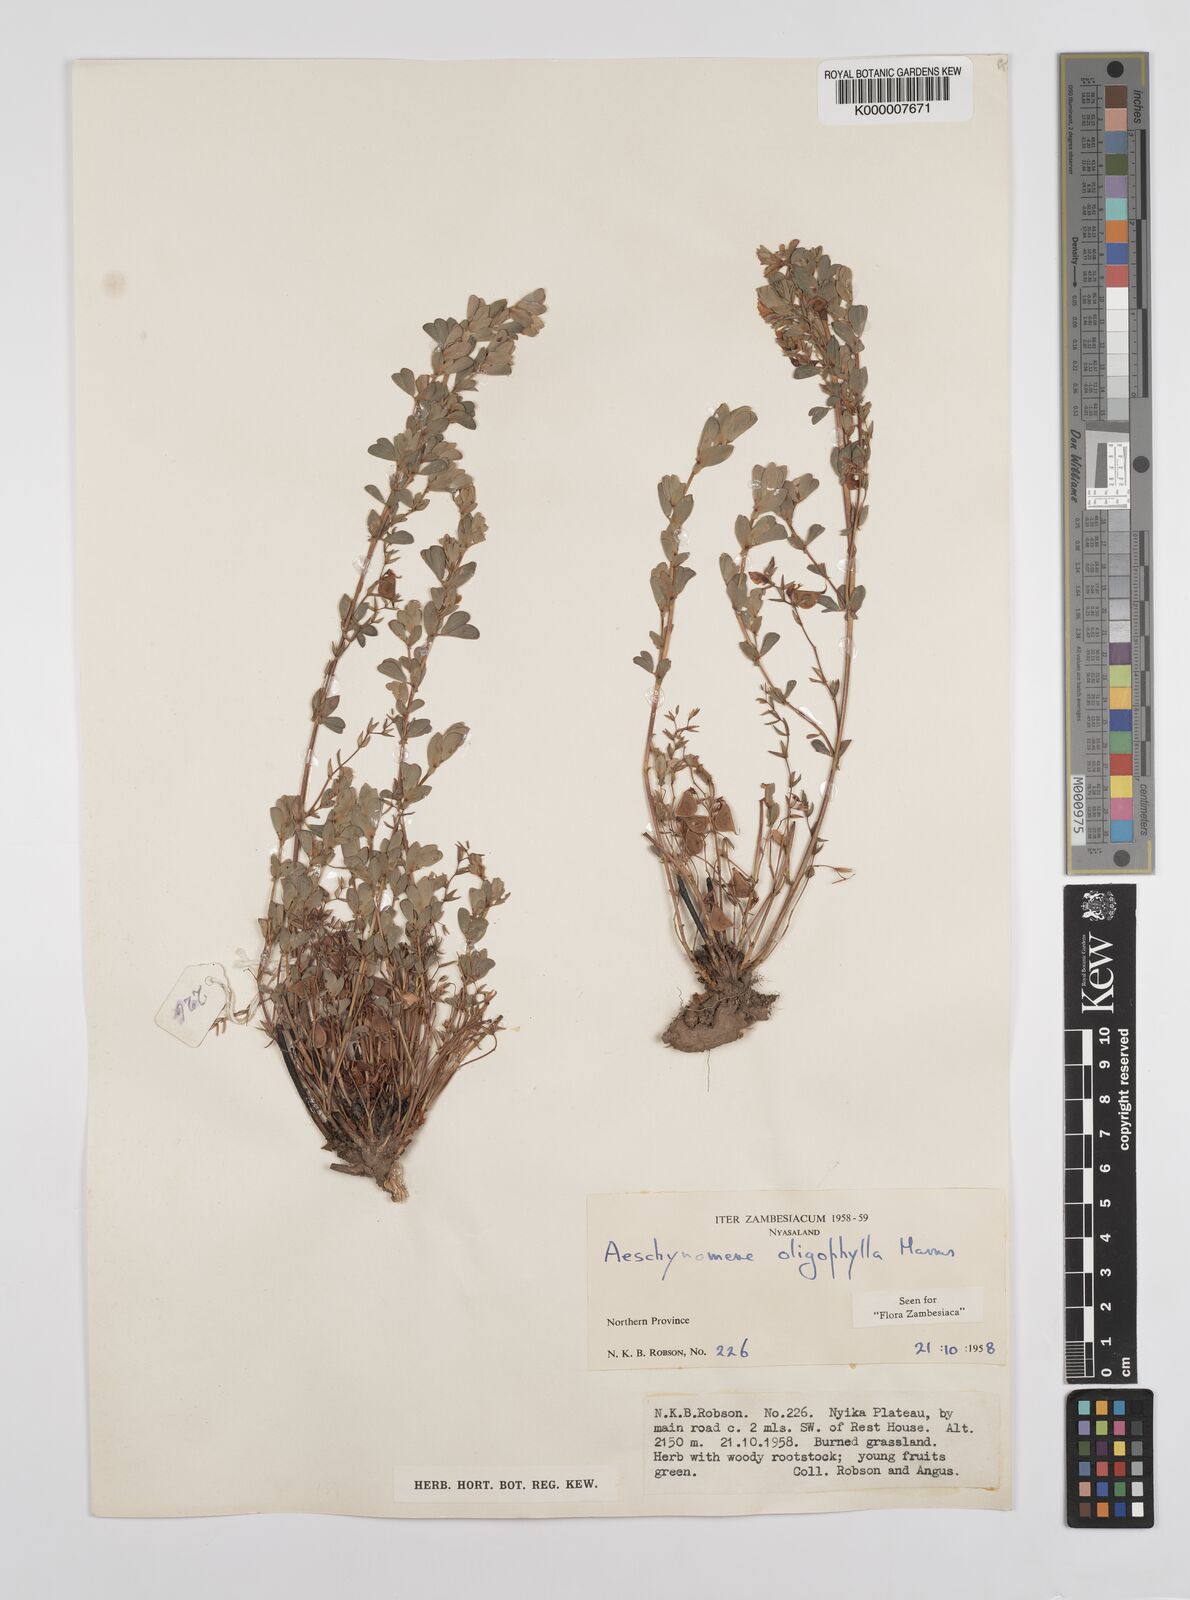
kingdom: Plantae
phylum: Tracheophyta
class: Magnoliopsida
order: Fabales
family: Fabaceae
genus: Aeschynomene
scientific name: Aeschynomene oligophylla
